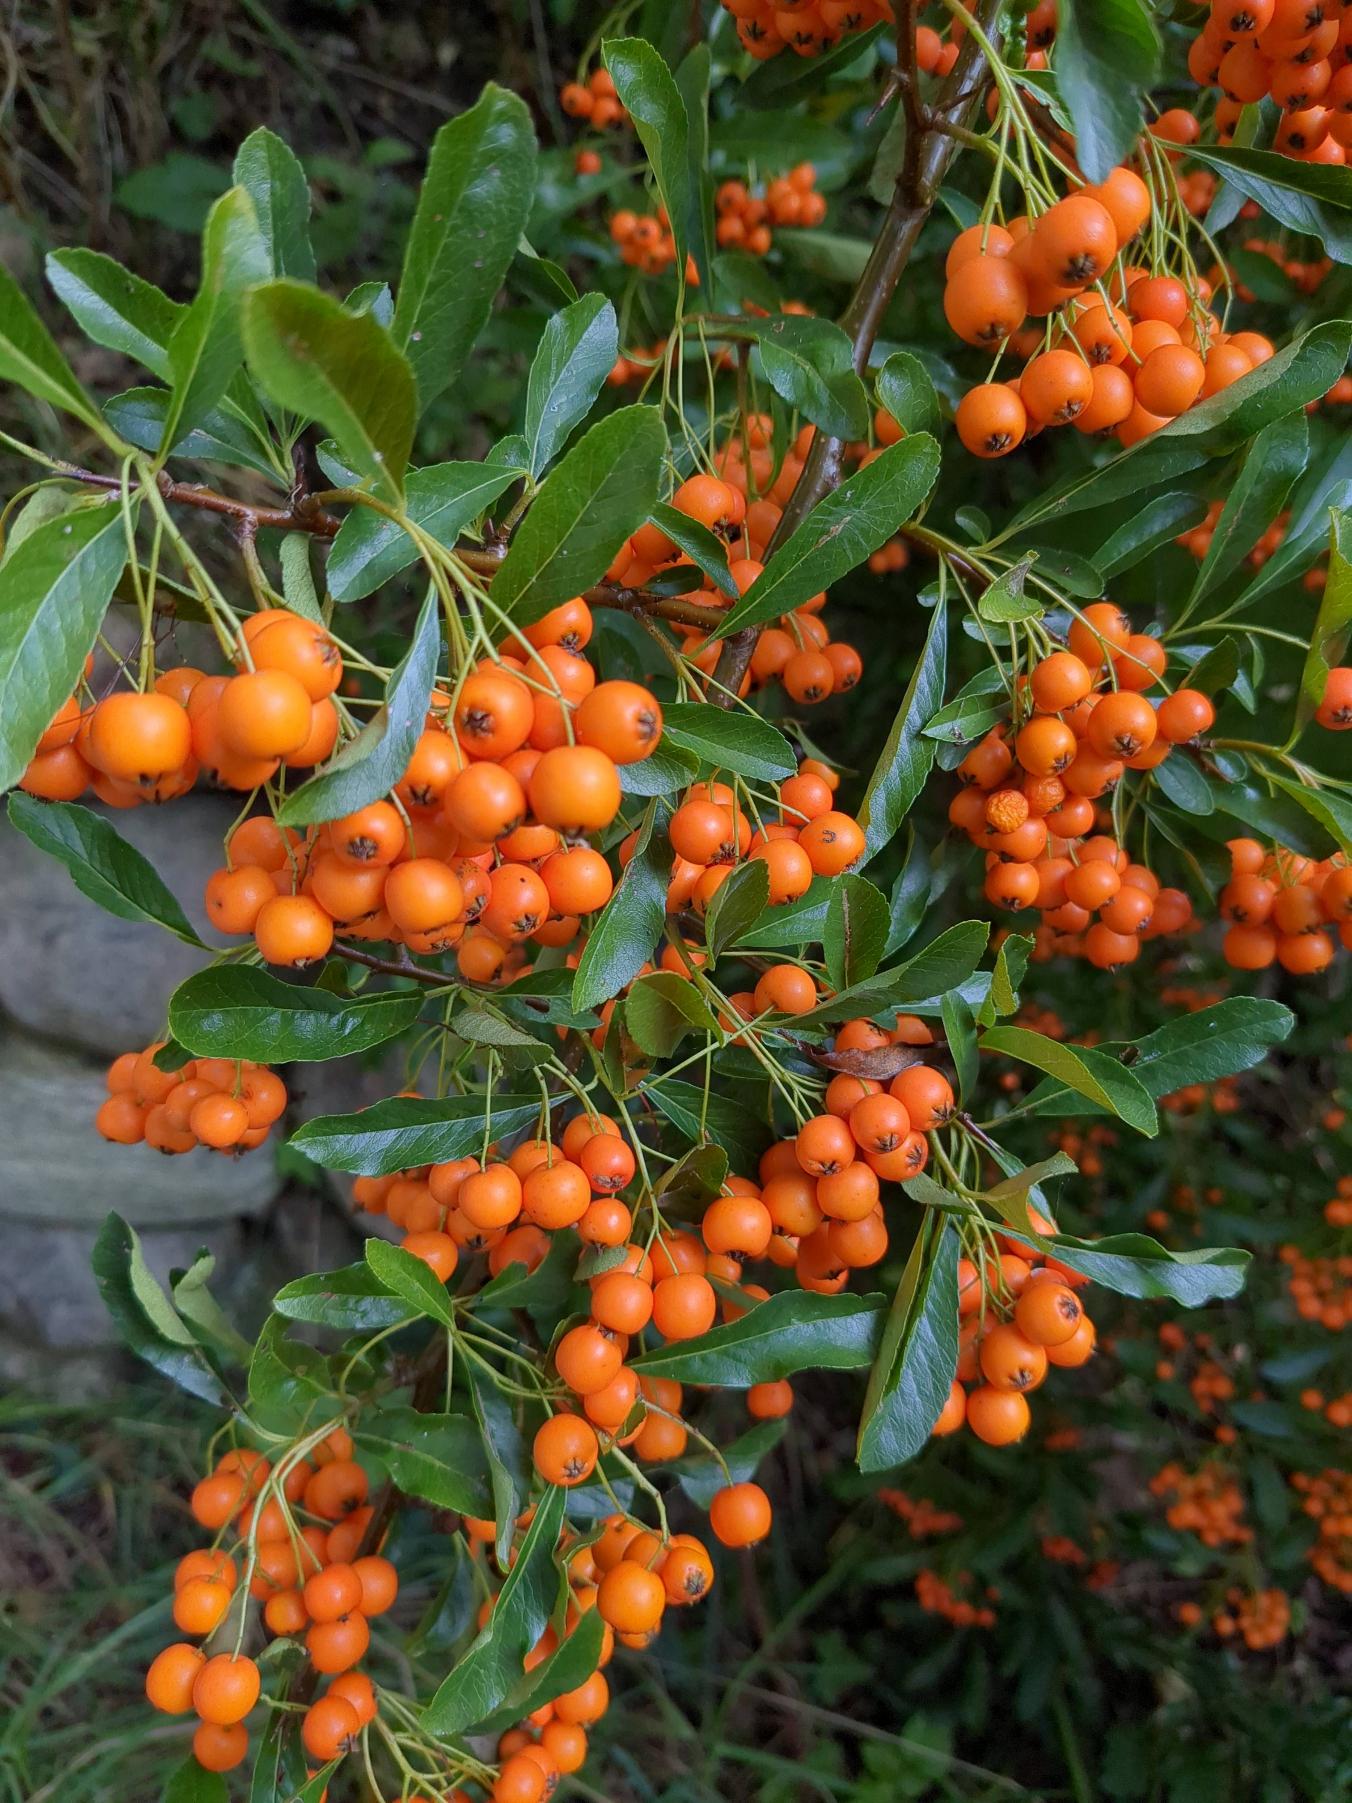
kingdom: Plantae
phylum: Tracheophyta
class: Magnoliopsida
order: Rosales
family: Rosaceae
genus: Pyracantha
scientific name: Pyracantha crenulata
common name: Orangegul ildtorn
